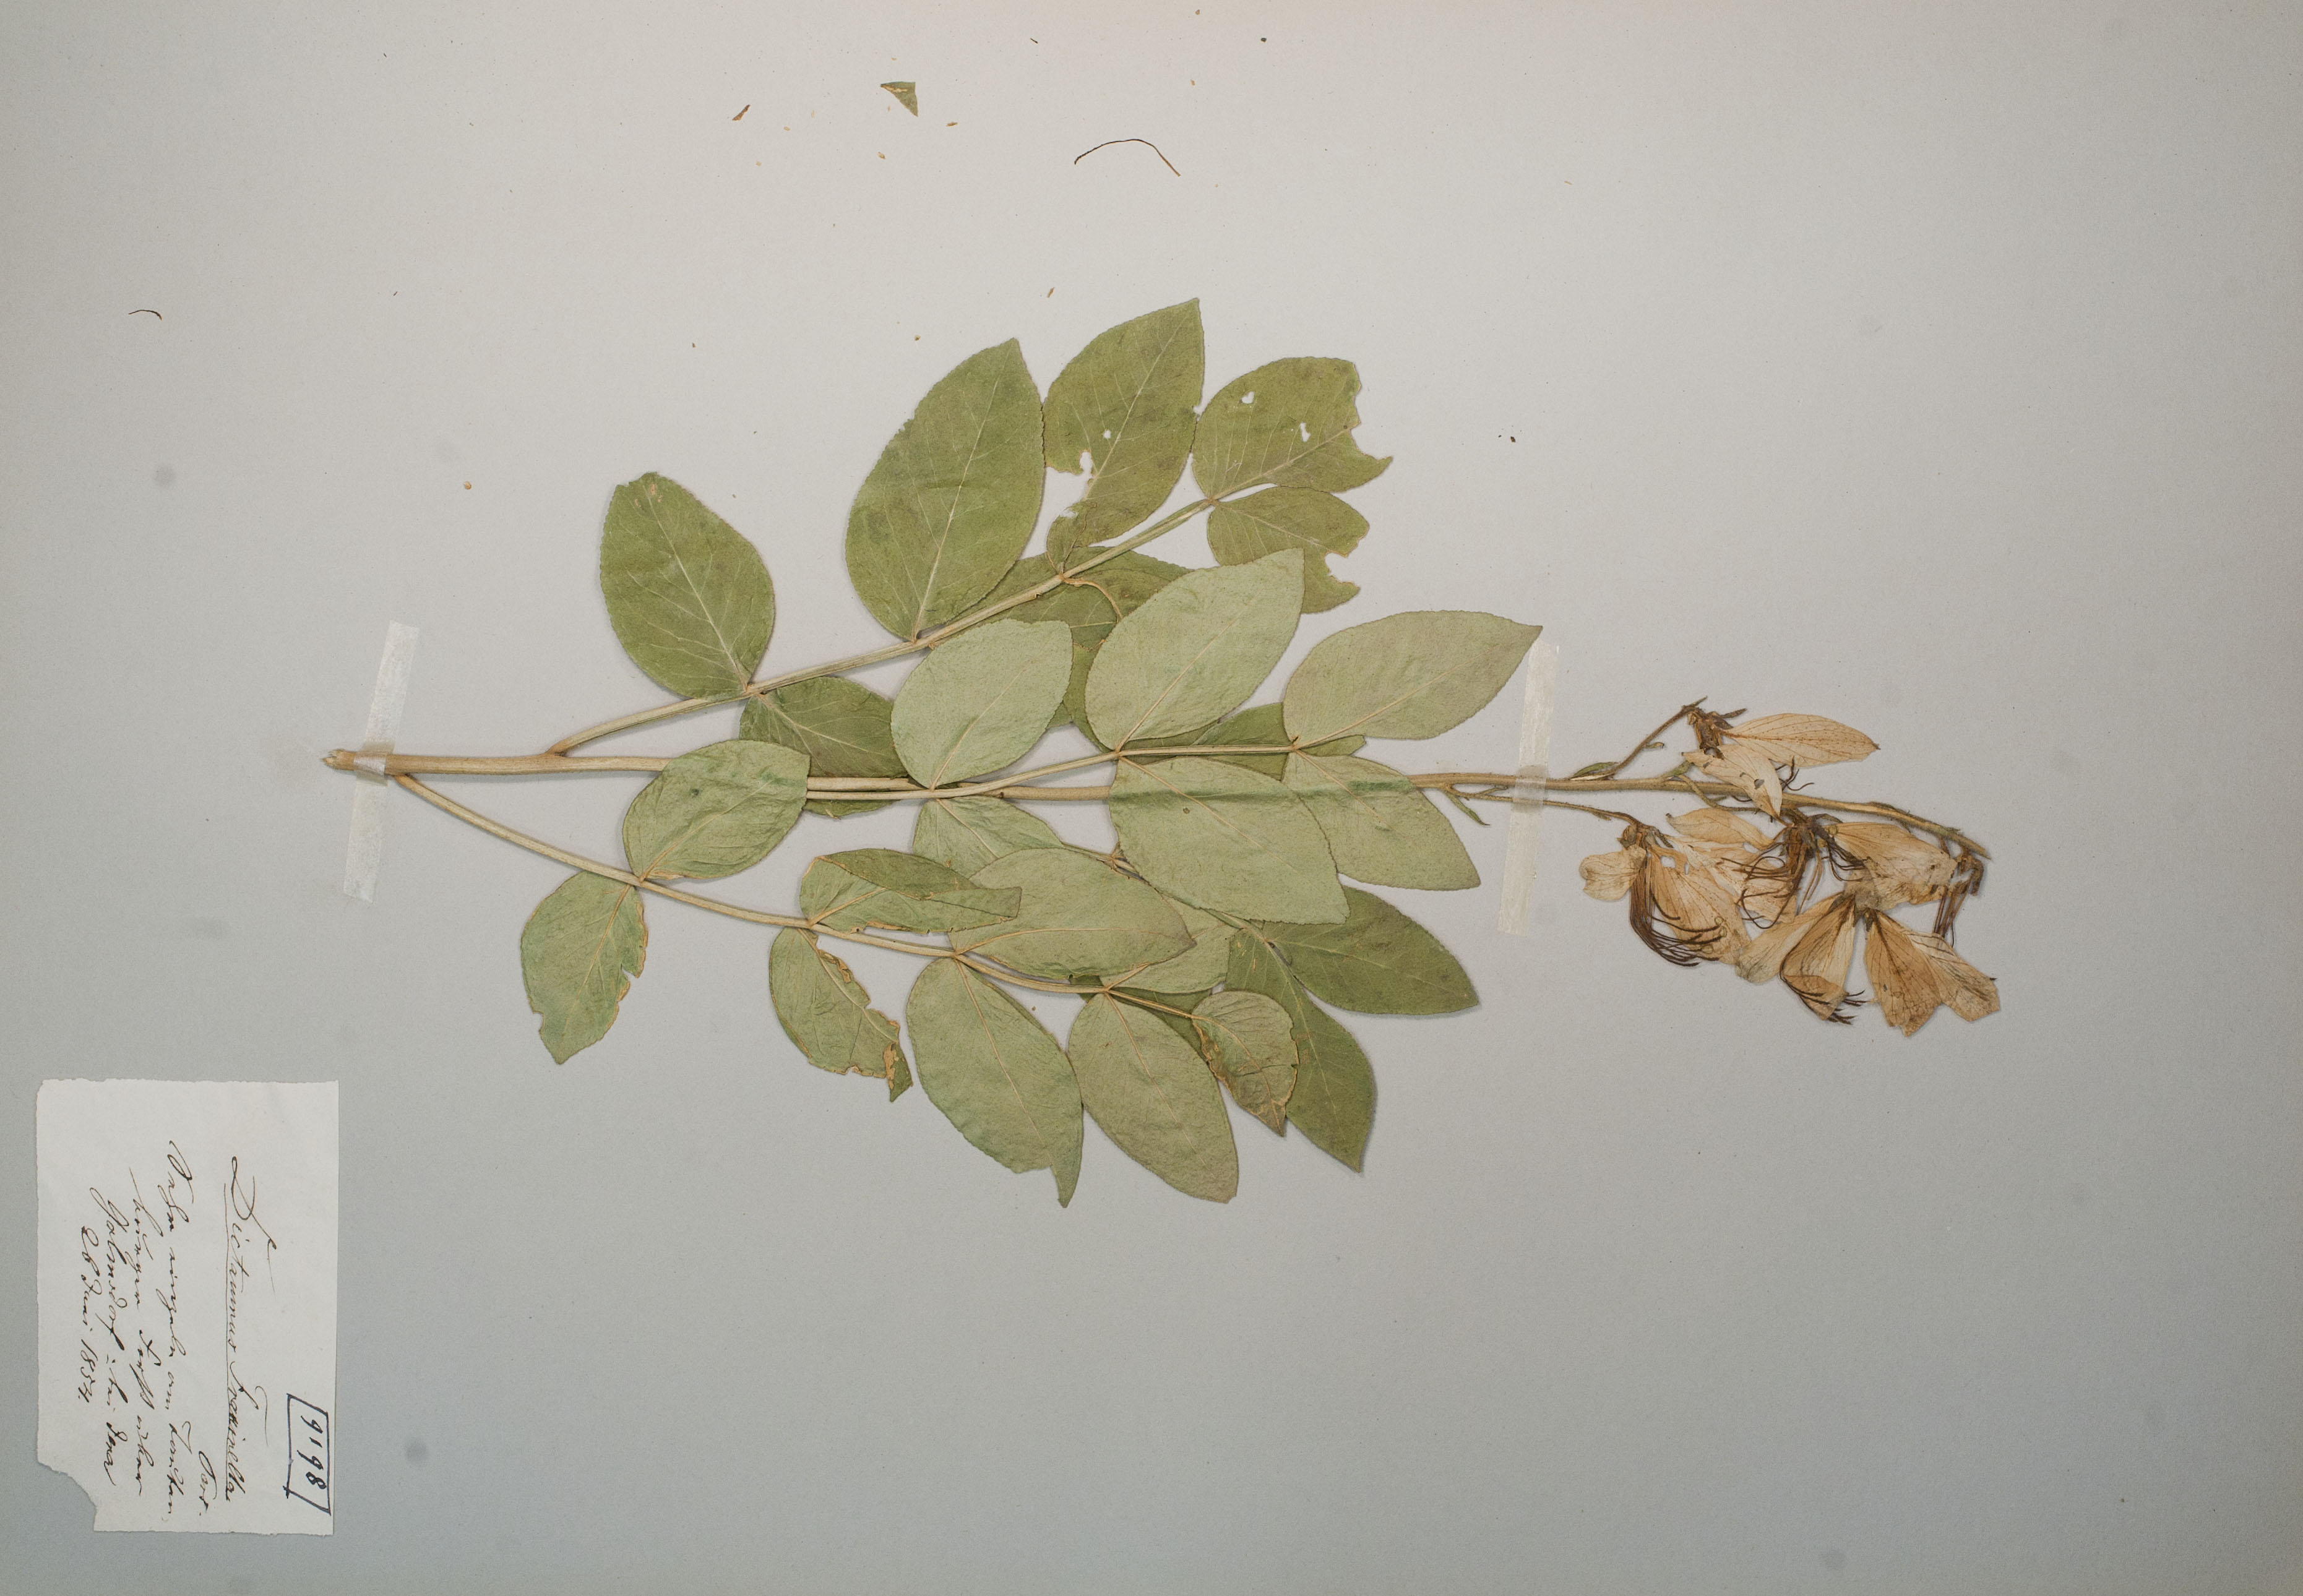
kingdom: Plantae
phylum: Tracheophyta
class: Magnoliopsida
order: Sapindales
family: Rutaceae
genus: Dictamnus
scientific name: Dictamnus albus
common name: Gasplant
